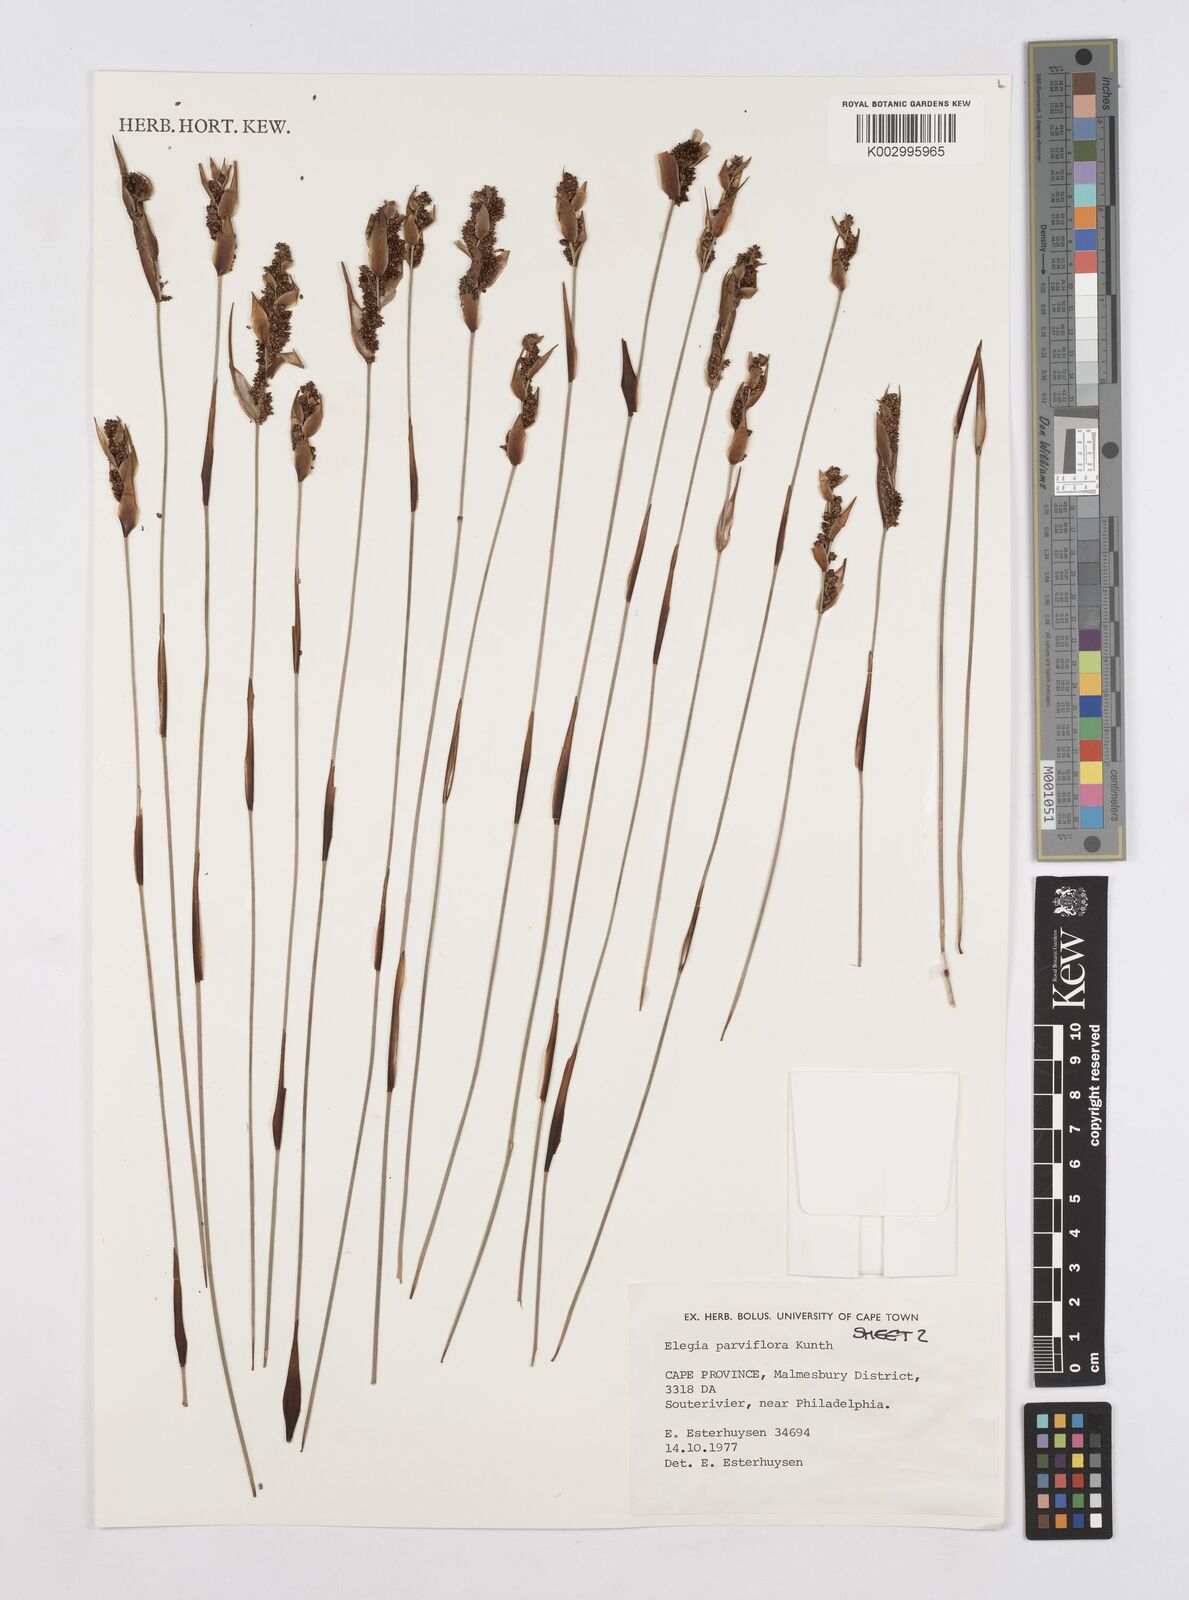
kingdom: Plantae
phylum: Tracheophyta
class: Liliopsida
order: Poales
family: Restionaceae
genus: Cannomois
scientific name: Cannomois parviflora
